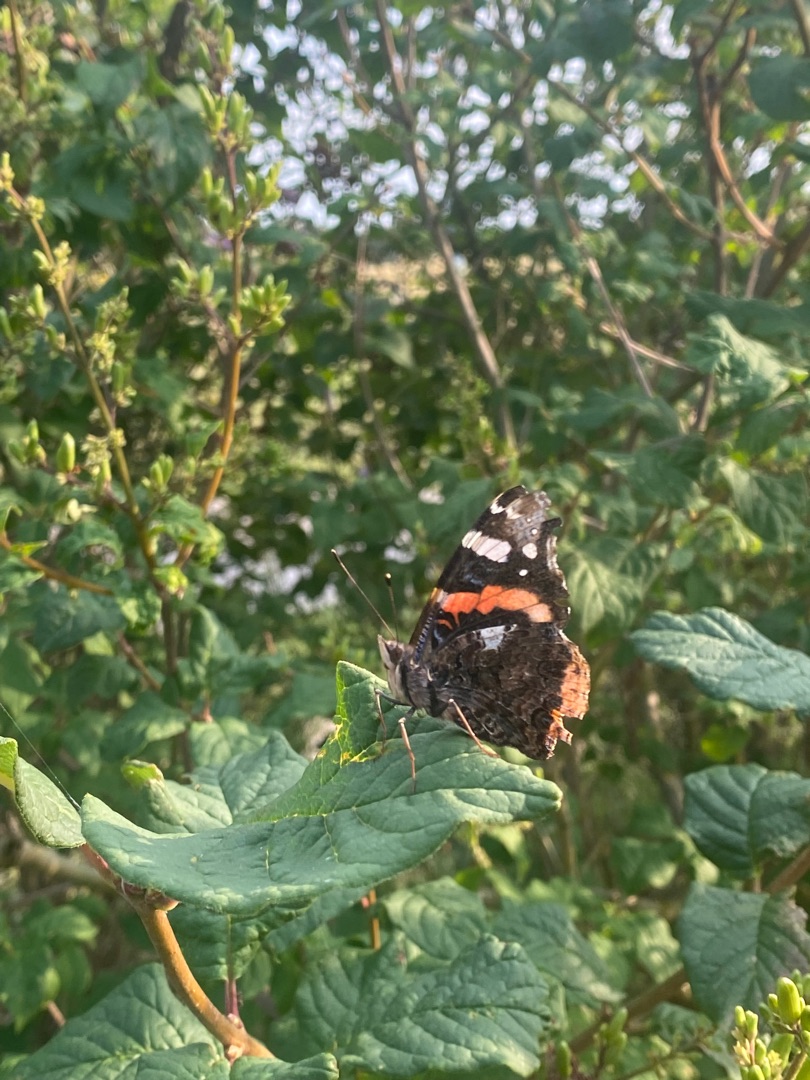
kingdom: Animalia
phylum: Arthropoda
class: Insecta
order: Lepidoptera
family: Nymphalidae
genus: Vanessa
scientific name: Vanessa atalanta
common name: Admiral
